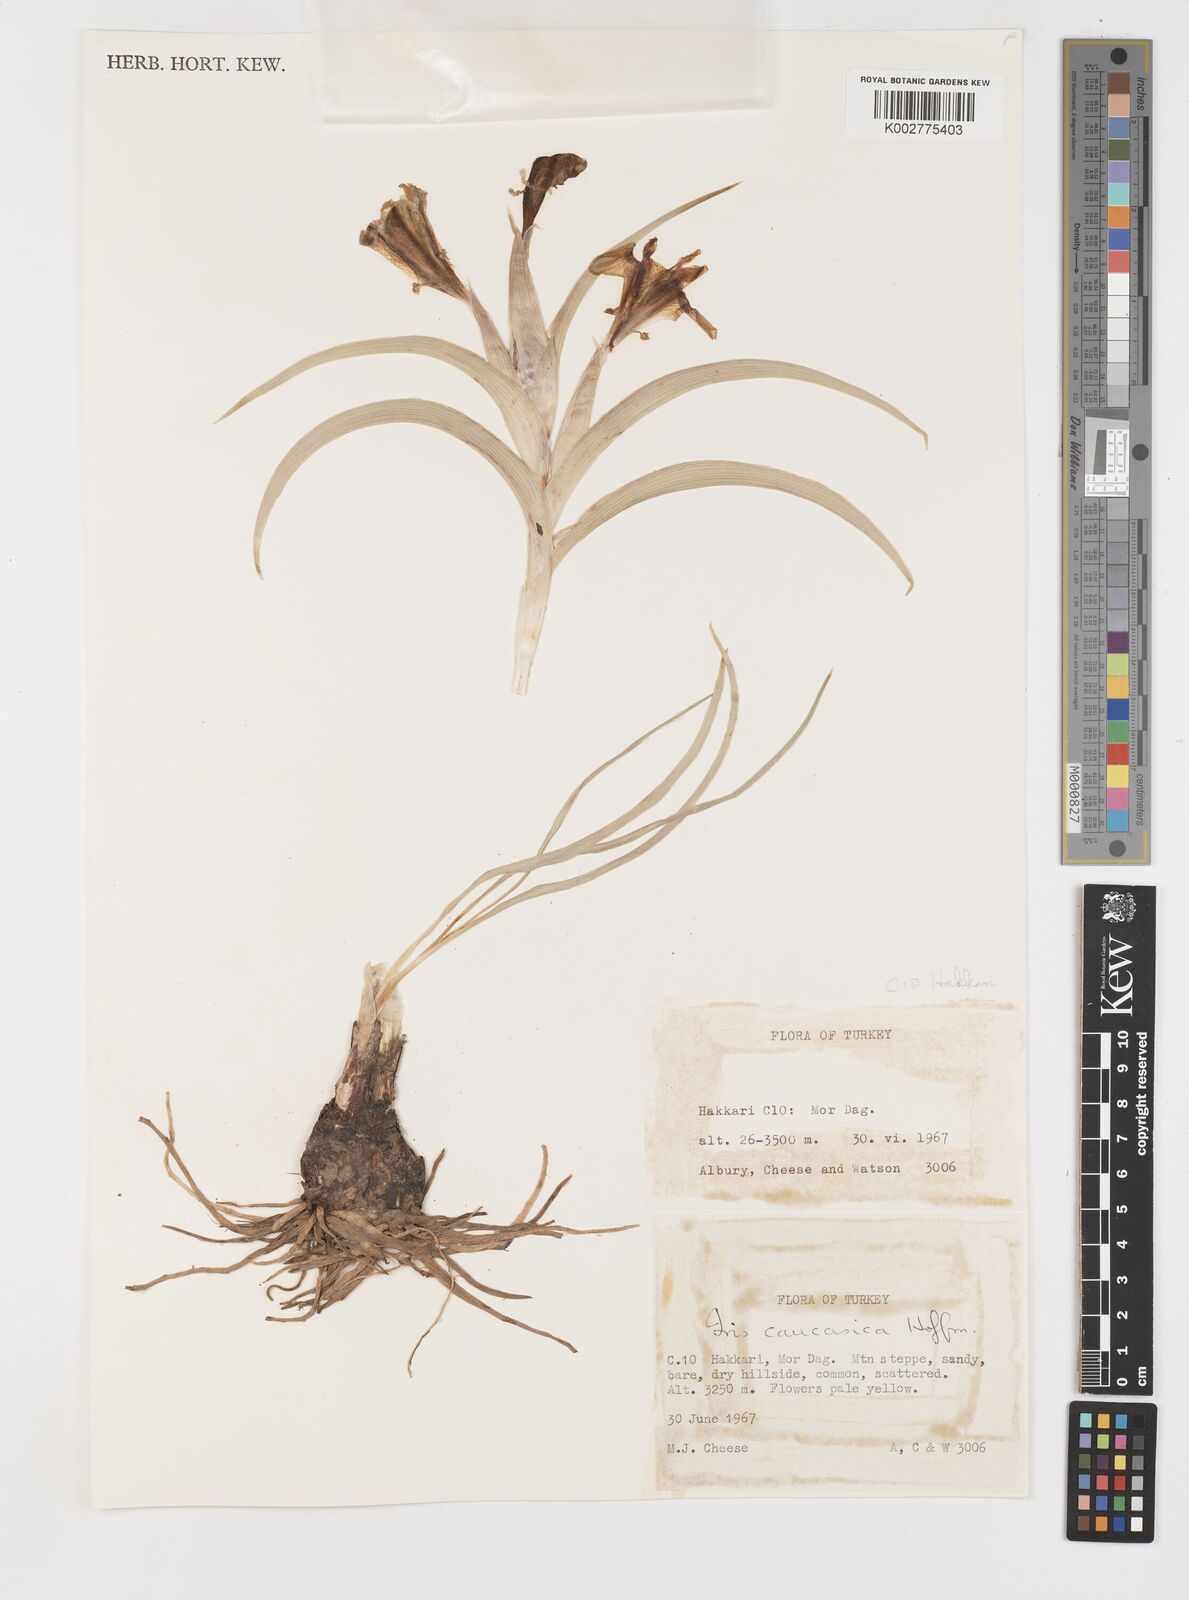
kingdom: Plantae
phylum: Tracheophyta
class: Liliopsida
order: Asparagales
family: Iridaceae
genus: Iris
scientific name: Iris caucasica
